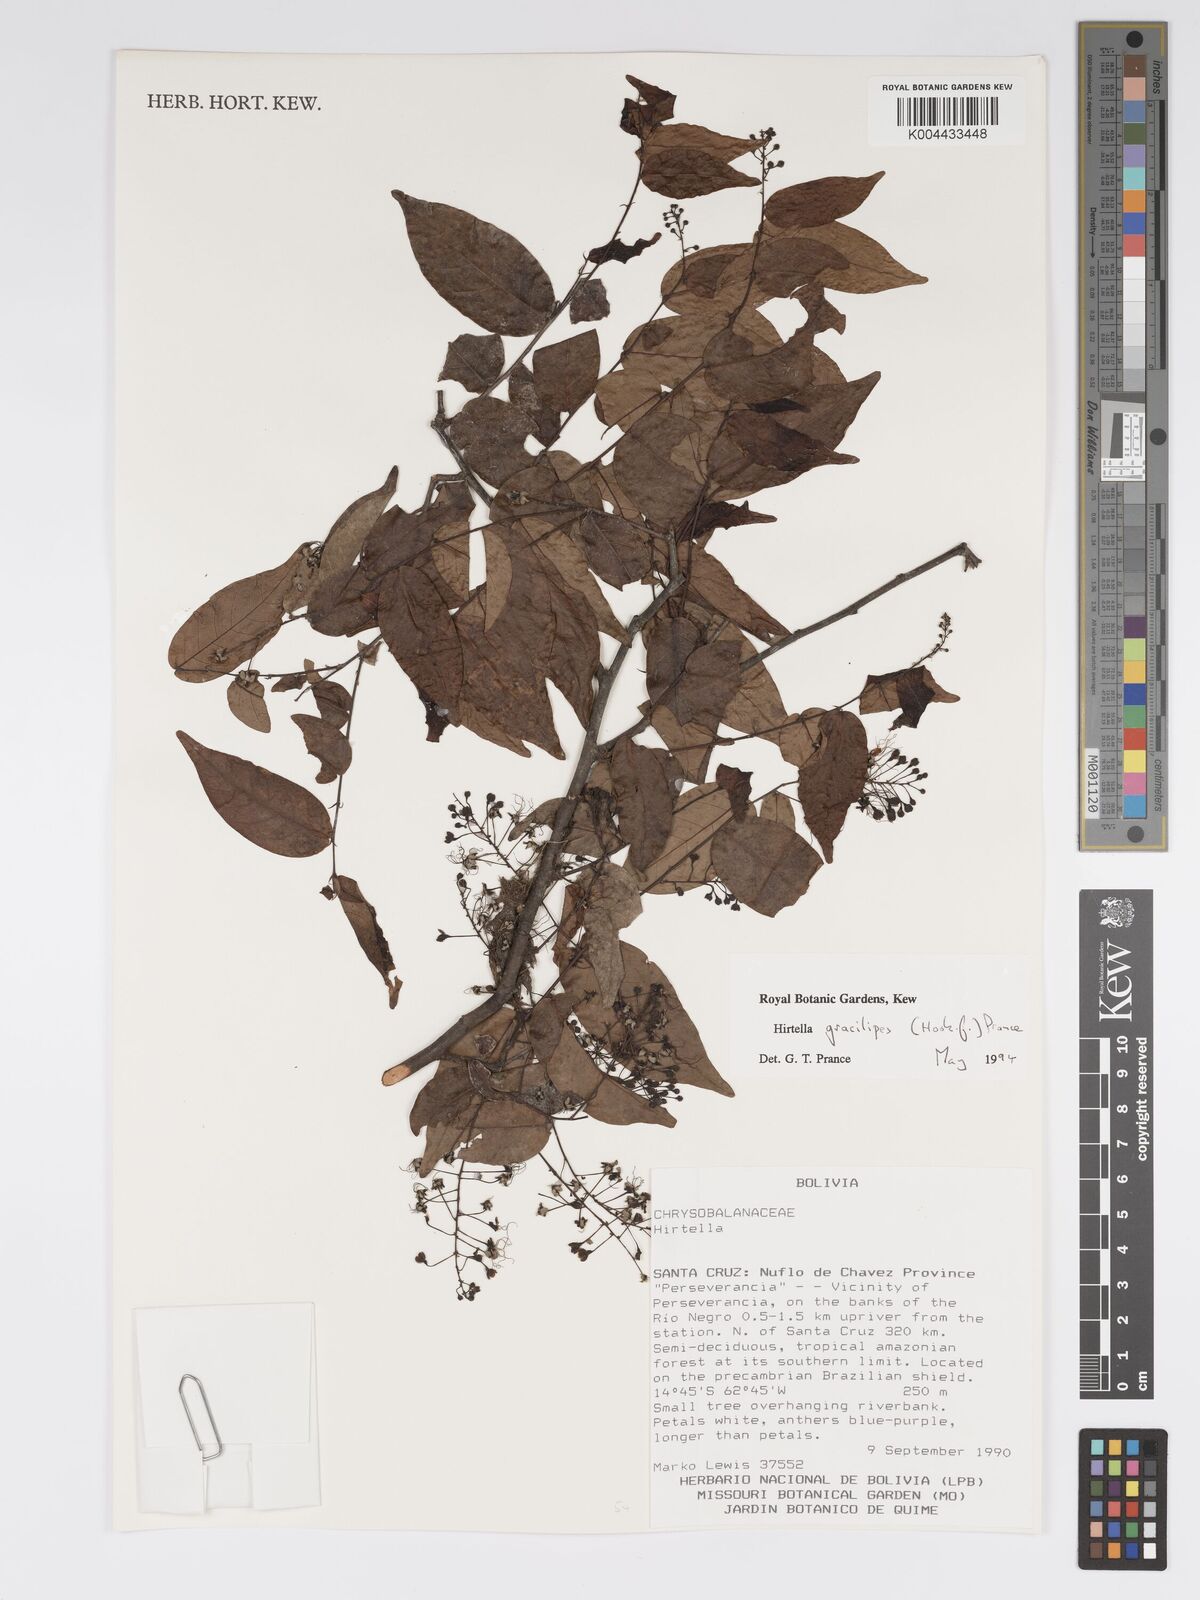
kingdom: Plantae
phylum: Tracheophyta
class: Magnoliopsida
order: Malpighiales
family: Chrysobalanaceae
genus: Hirtella
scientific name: Hirtella gracilipes
